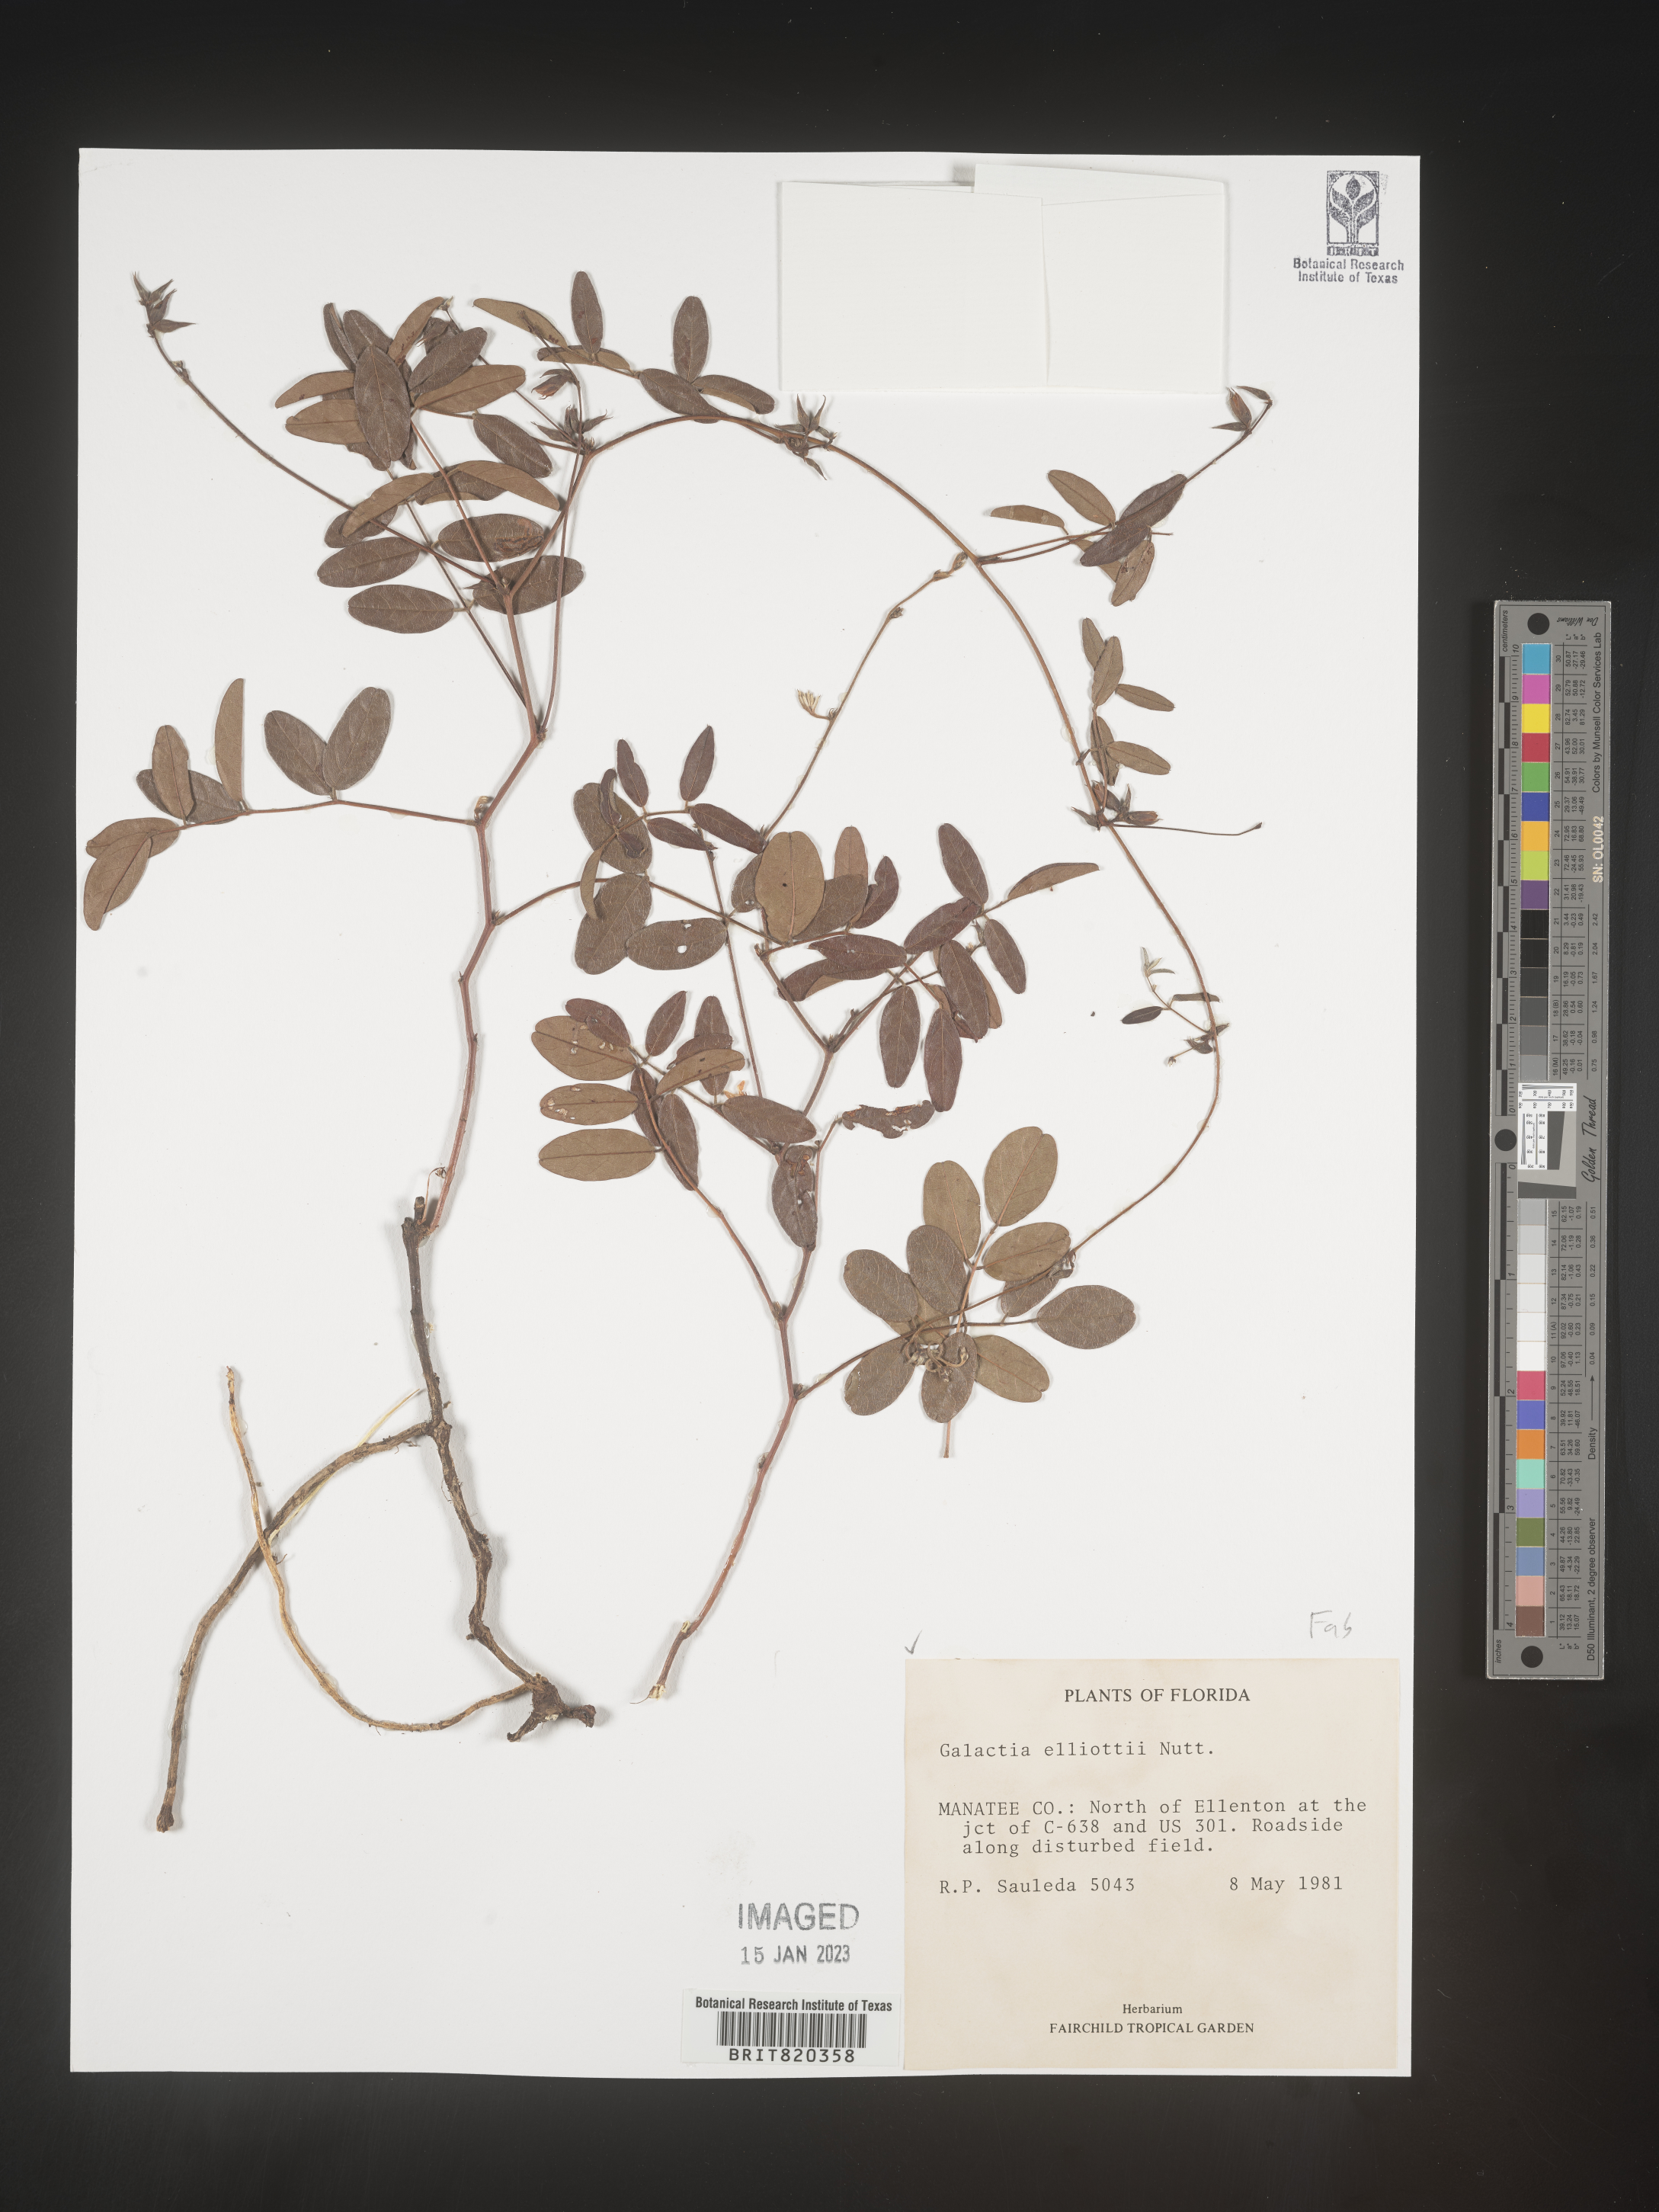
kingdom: Plantae
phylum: Tracheophyta
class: Magnoliopsida
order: Fabales
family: Fabaceae
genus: Galactia
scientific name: Galactia elliottii
